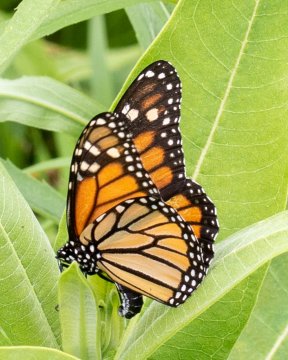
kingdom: Animalia
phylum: Arthropoda
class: Insecta
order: Lepidoptera
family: Nymphalidae
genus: Danaus
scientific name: Danaus plexippus
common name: Monarch
